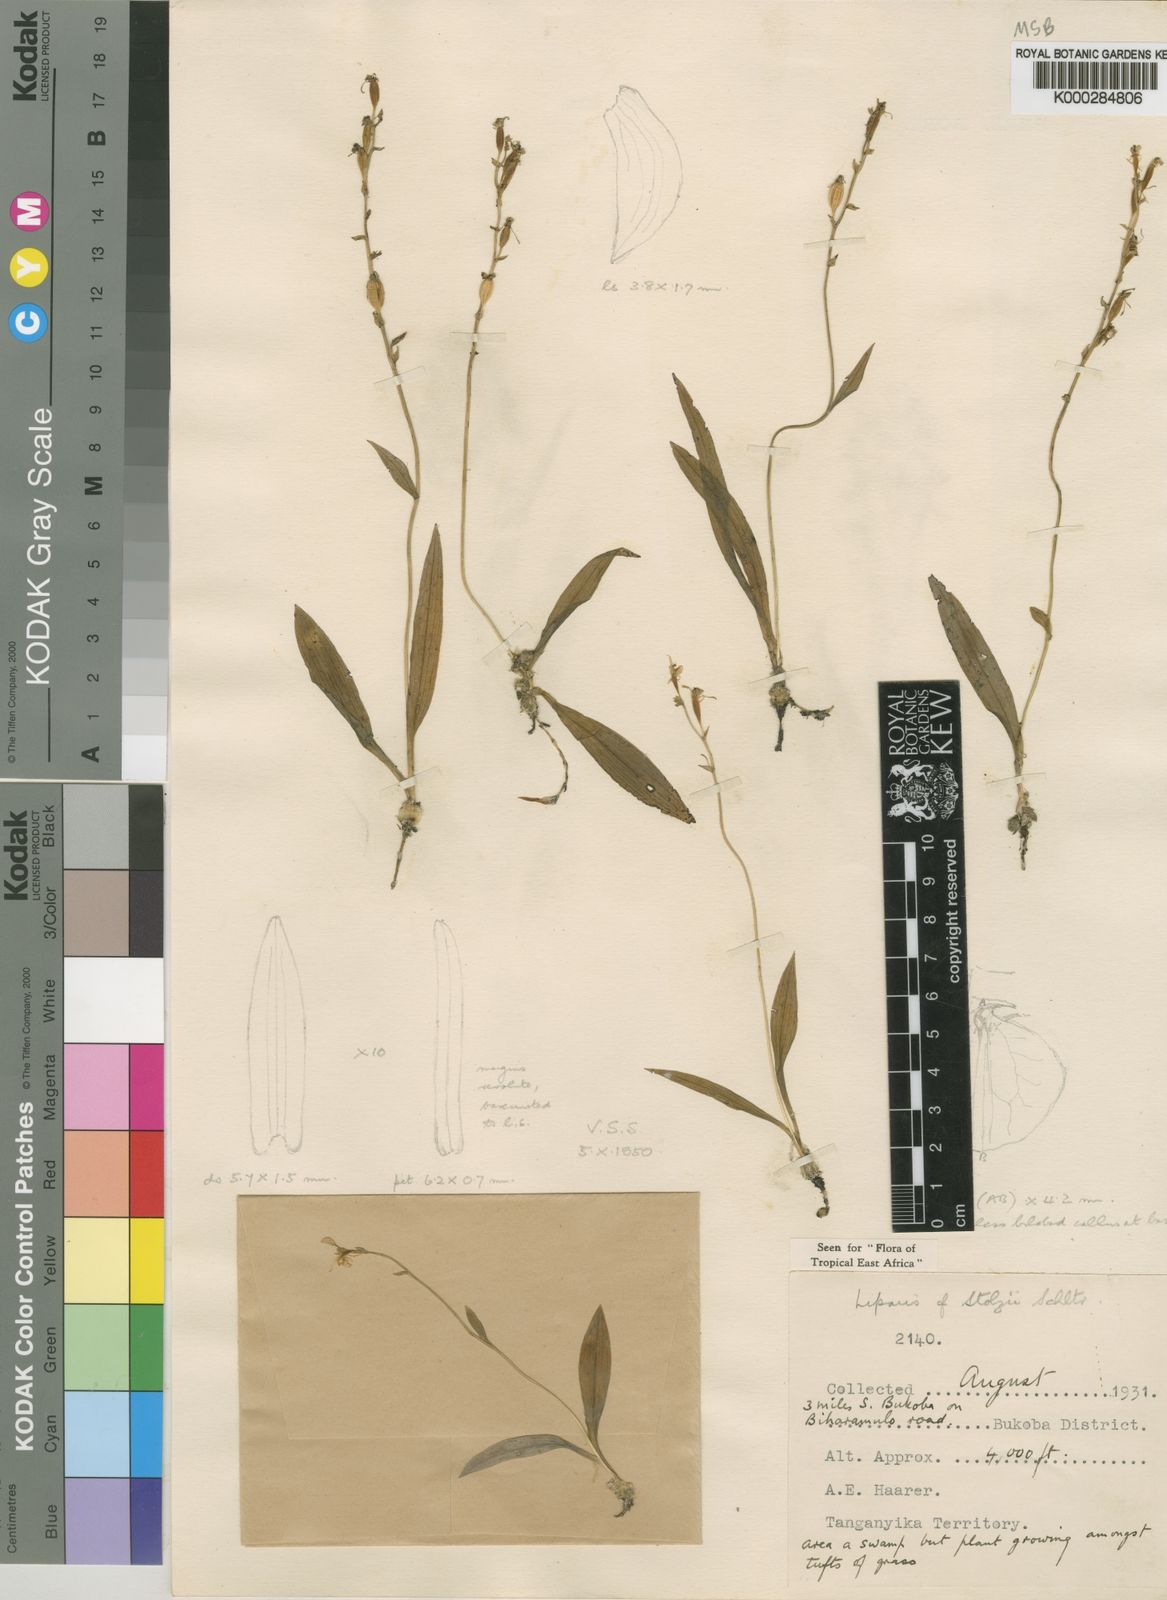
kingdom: Plantae
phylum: Tracheophyta
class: Liliopsida
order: Asparagales
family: Orchidaceae
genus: Liparis
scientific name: Liparis stolzii
